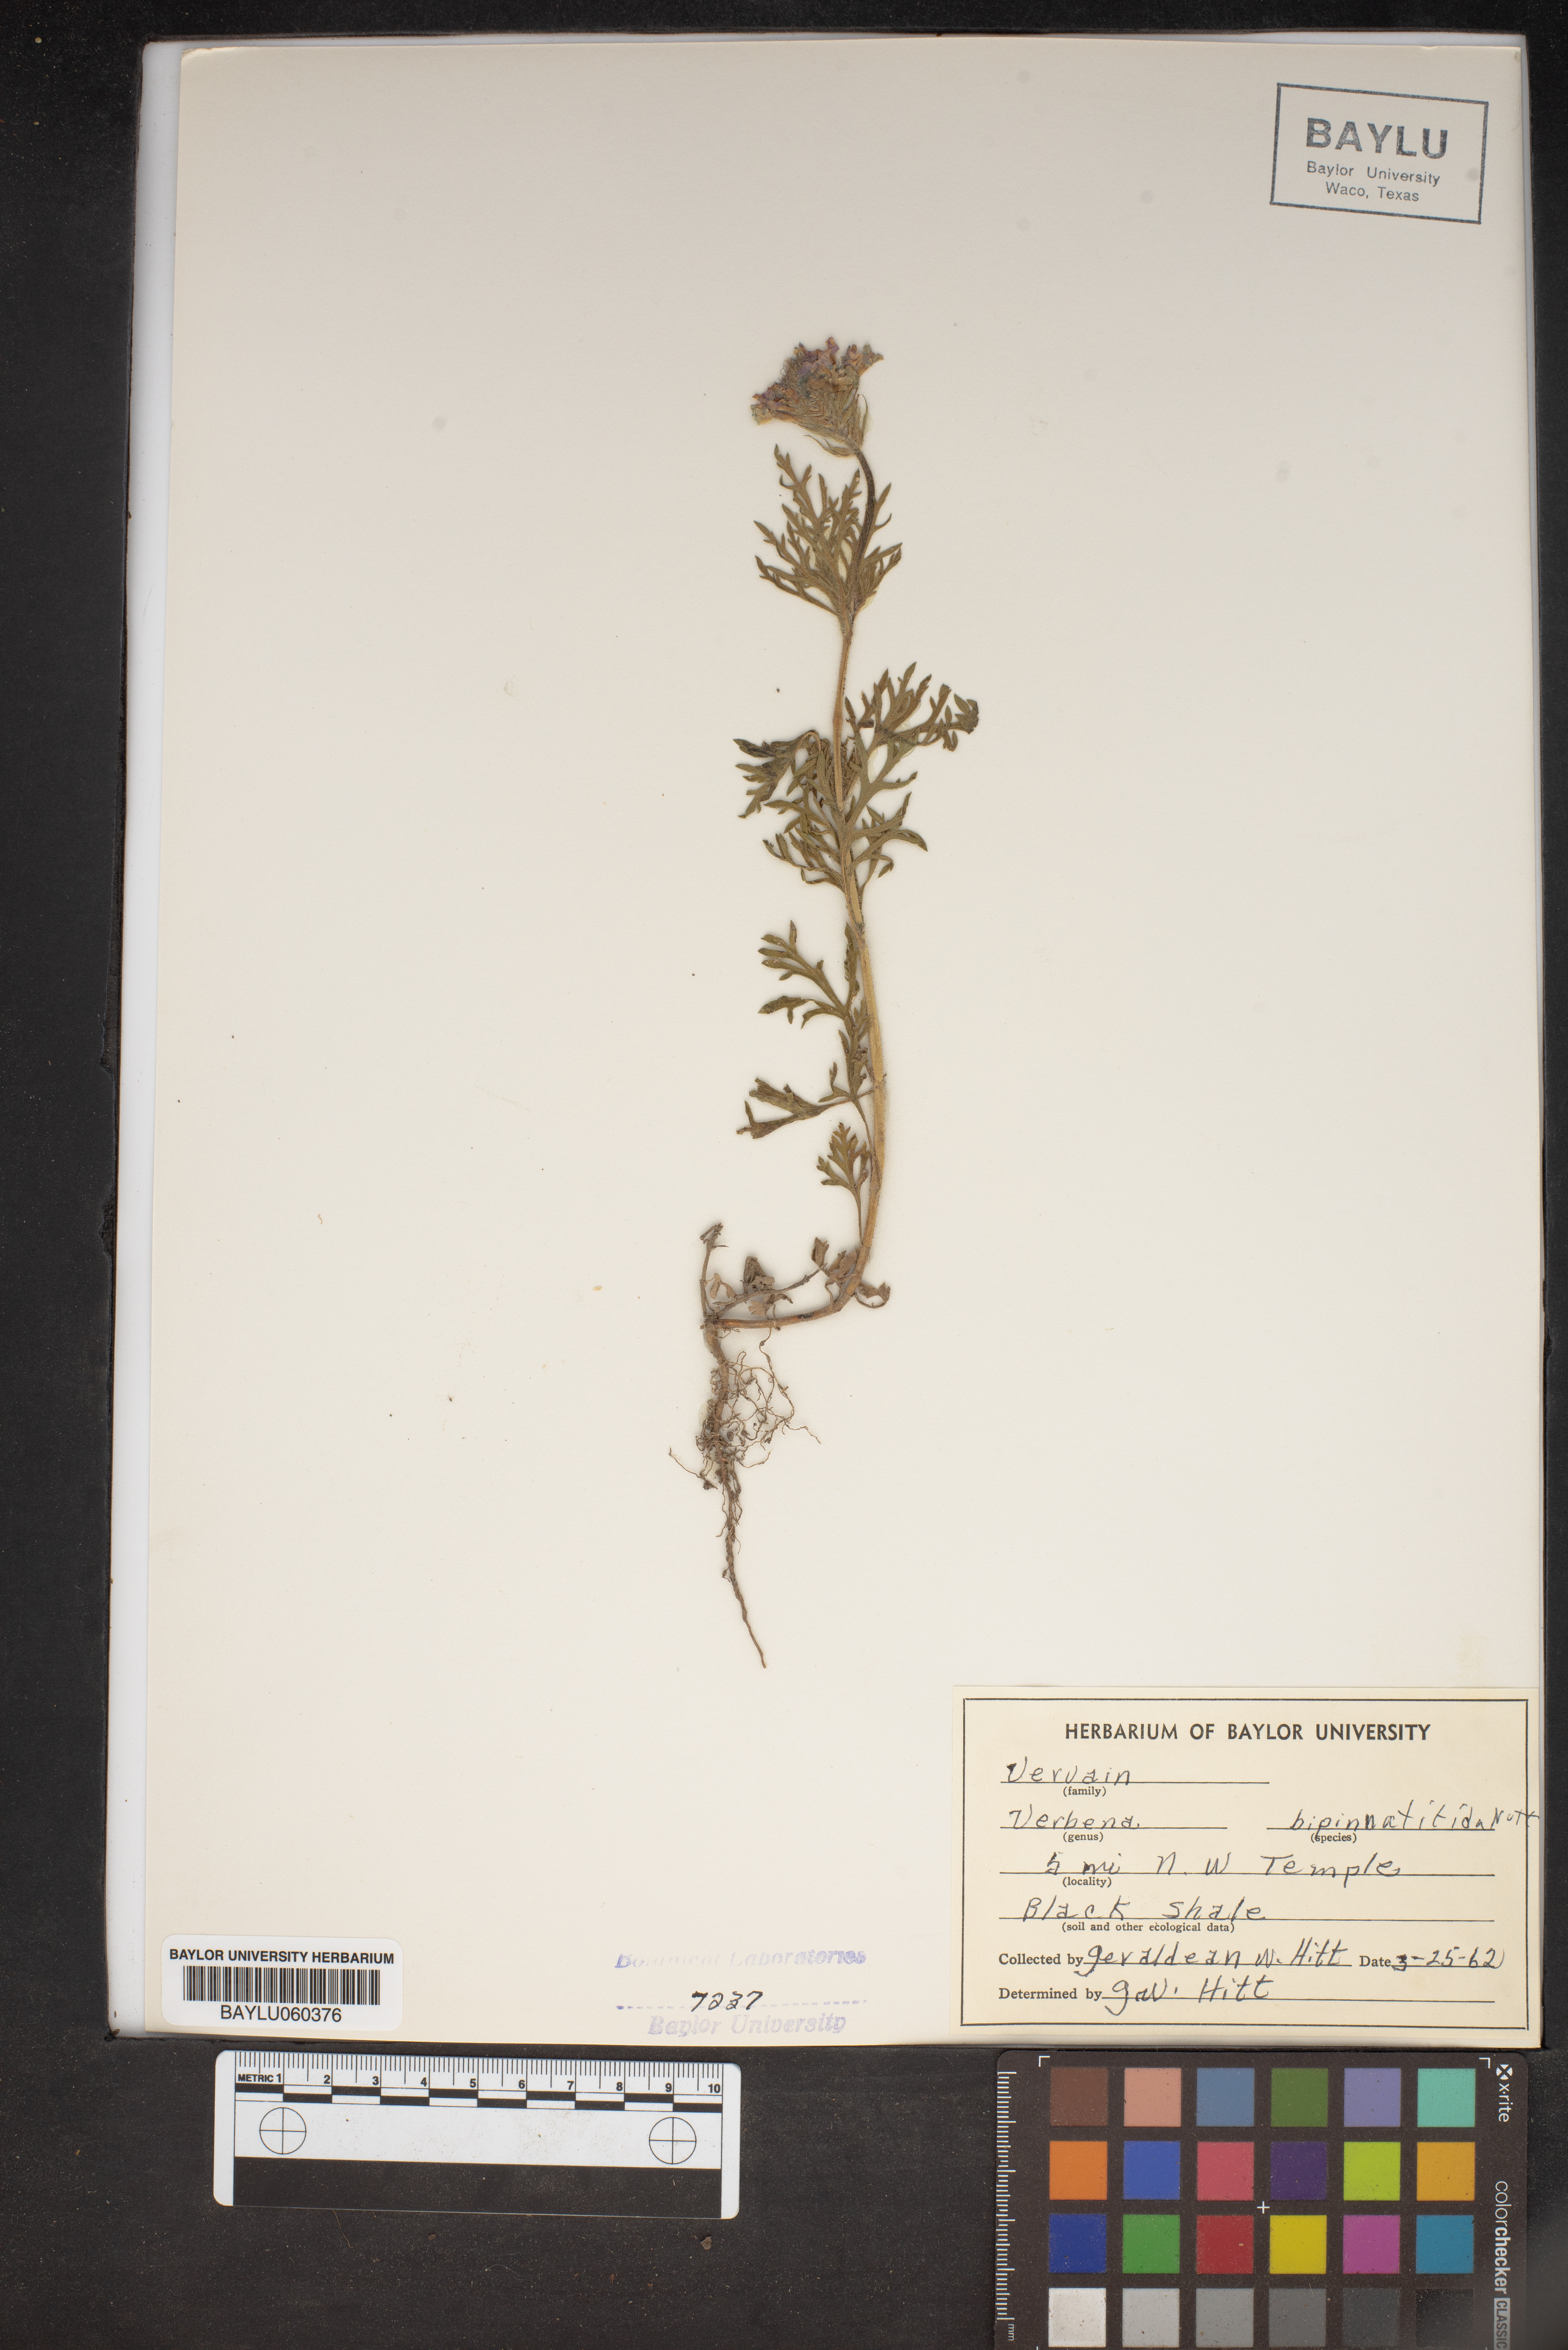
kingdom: Plantae
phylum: Tracheophyta
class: Magnoliopsida
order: Lamiales
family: Verbenaceae
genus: Verbena
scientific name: Verbena bipinnatifida
